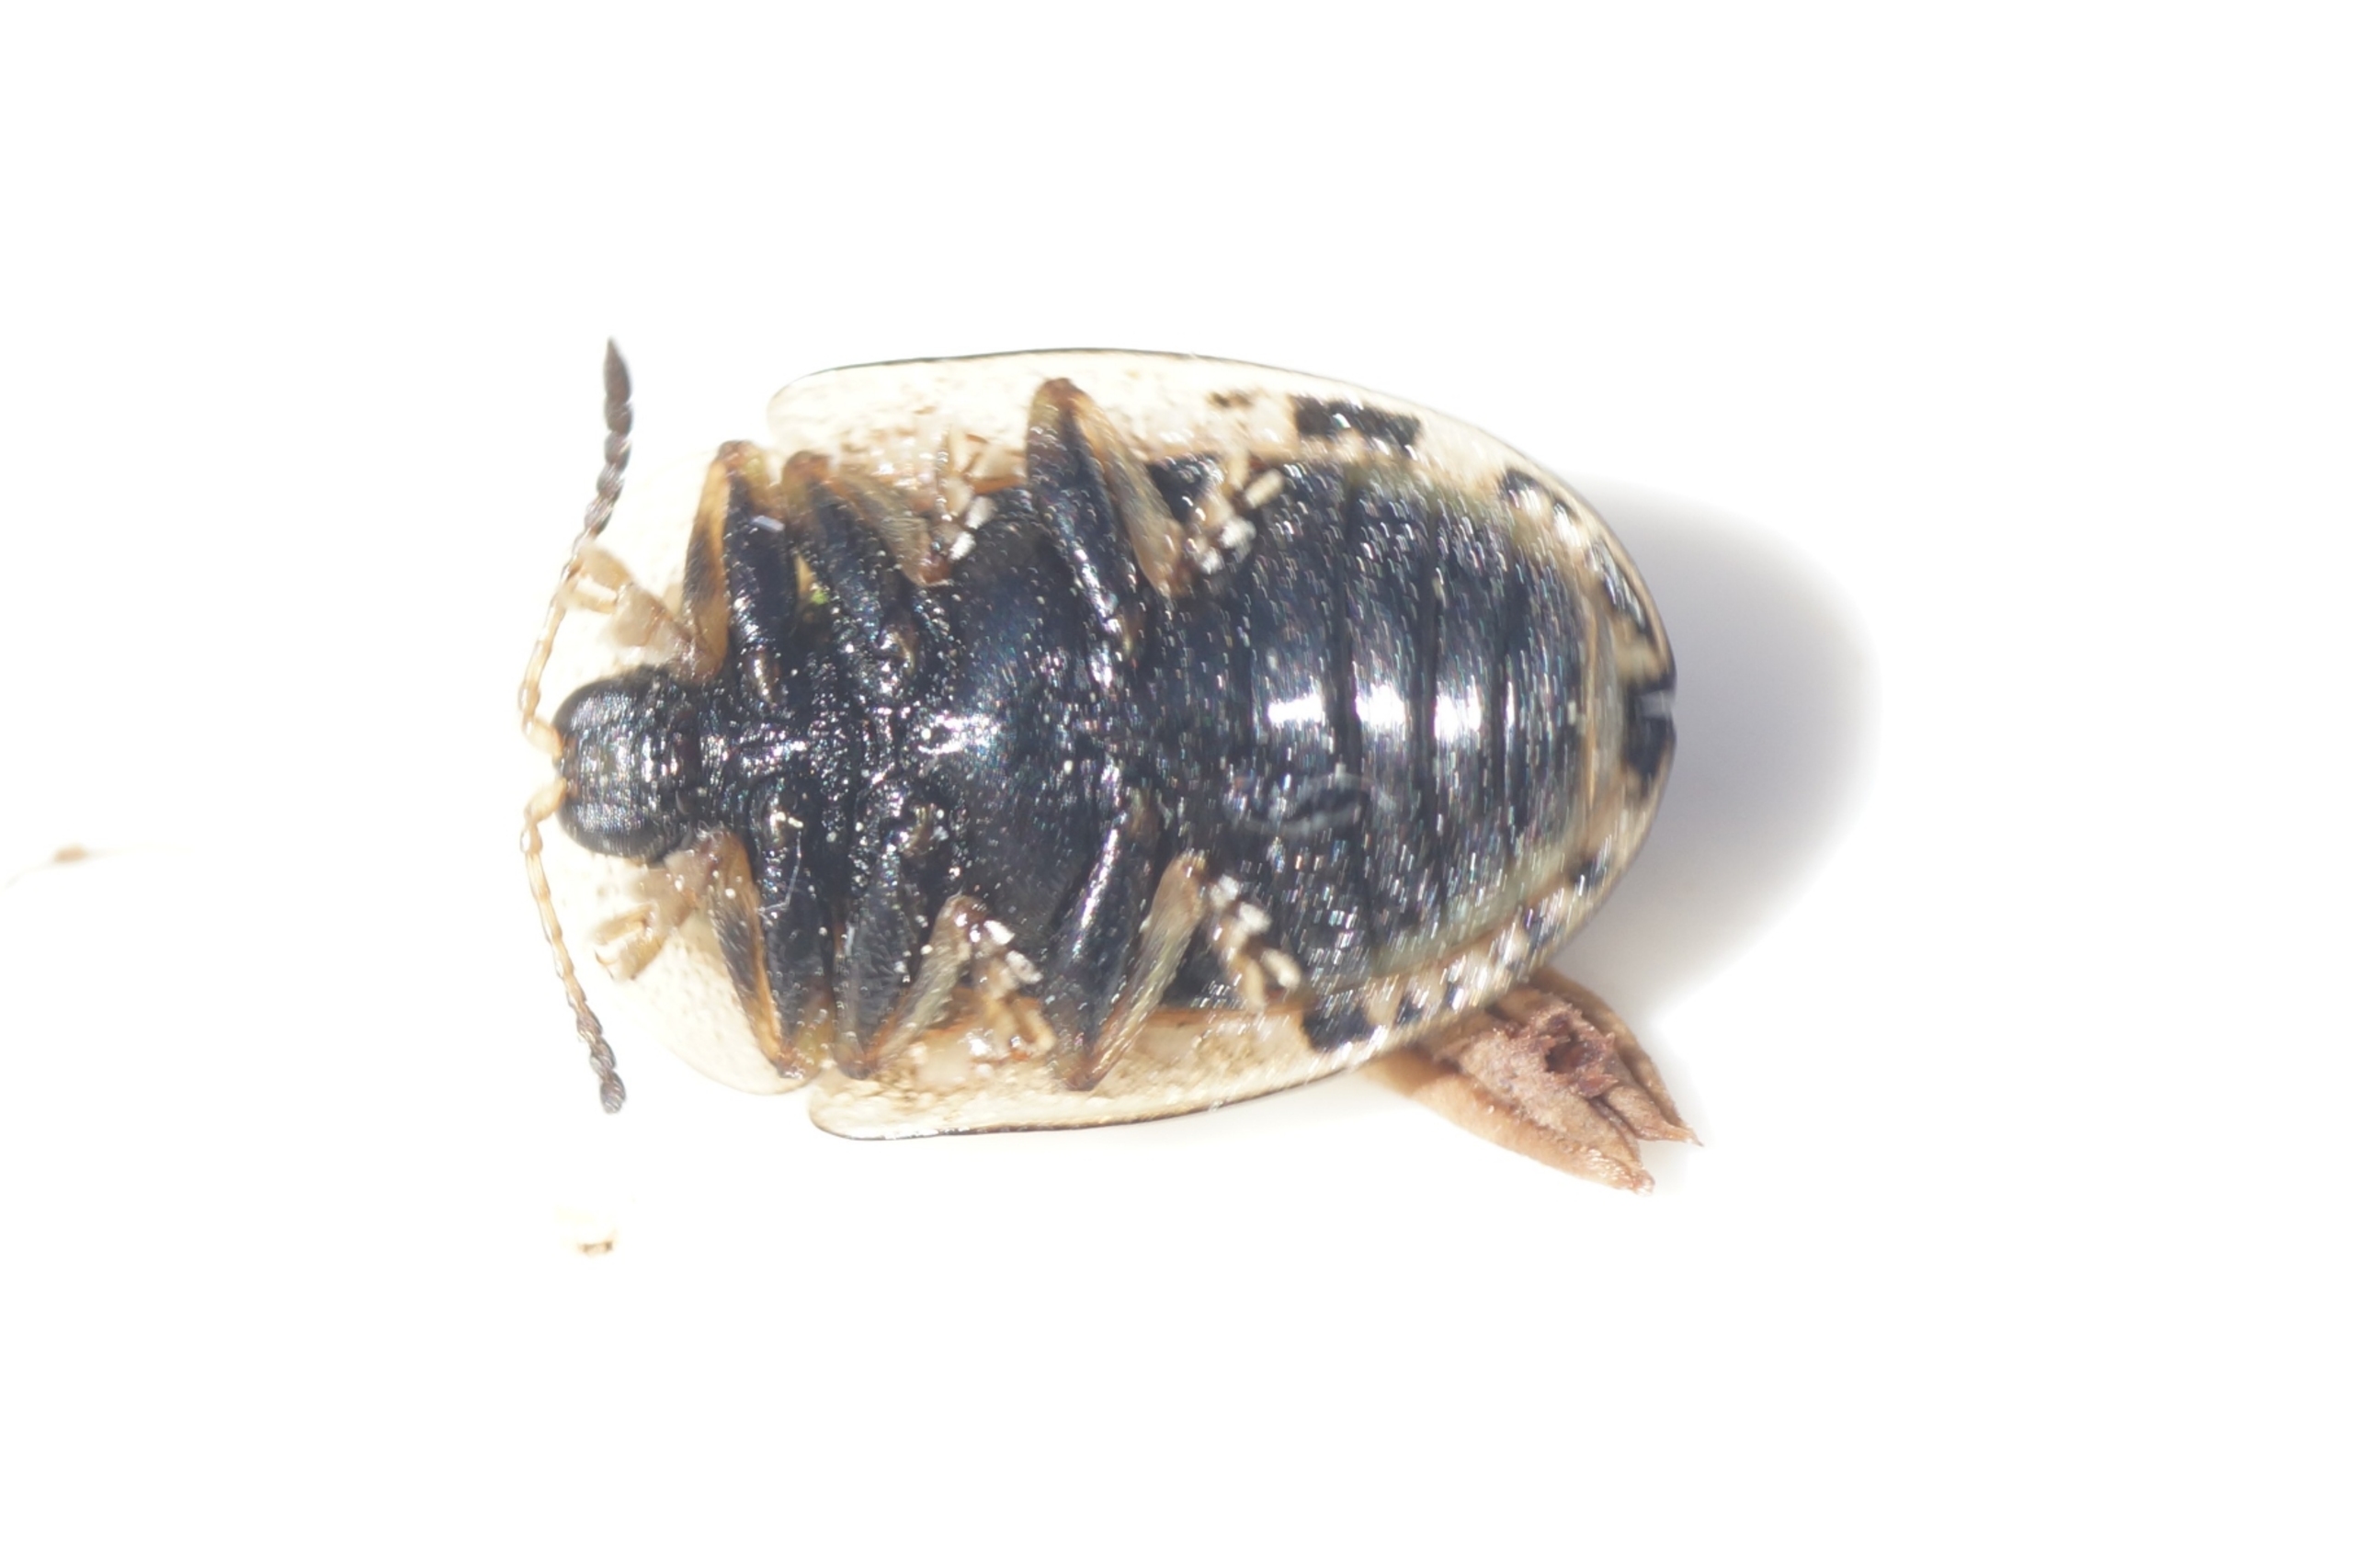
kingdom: Animalia
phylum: Arthropoda
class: Insecta
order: Coleoptera
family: Chrysomelidae
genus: Cassida
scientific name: Cassida nebulosa
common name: Plettet skjoldbille
